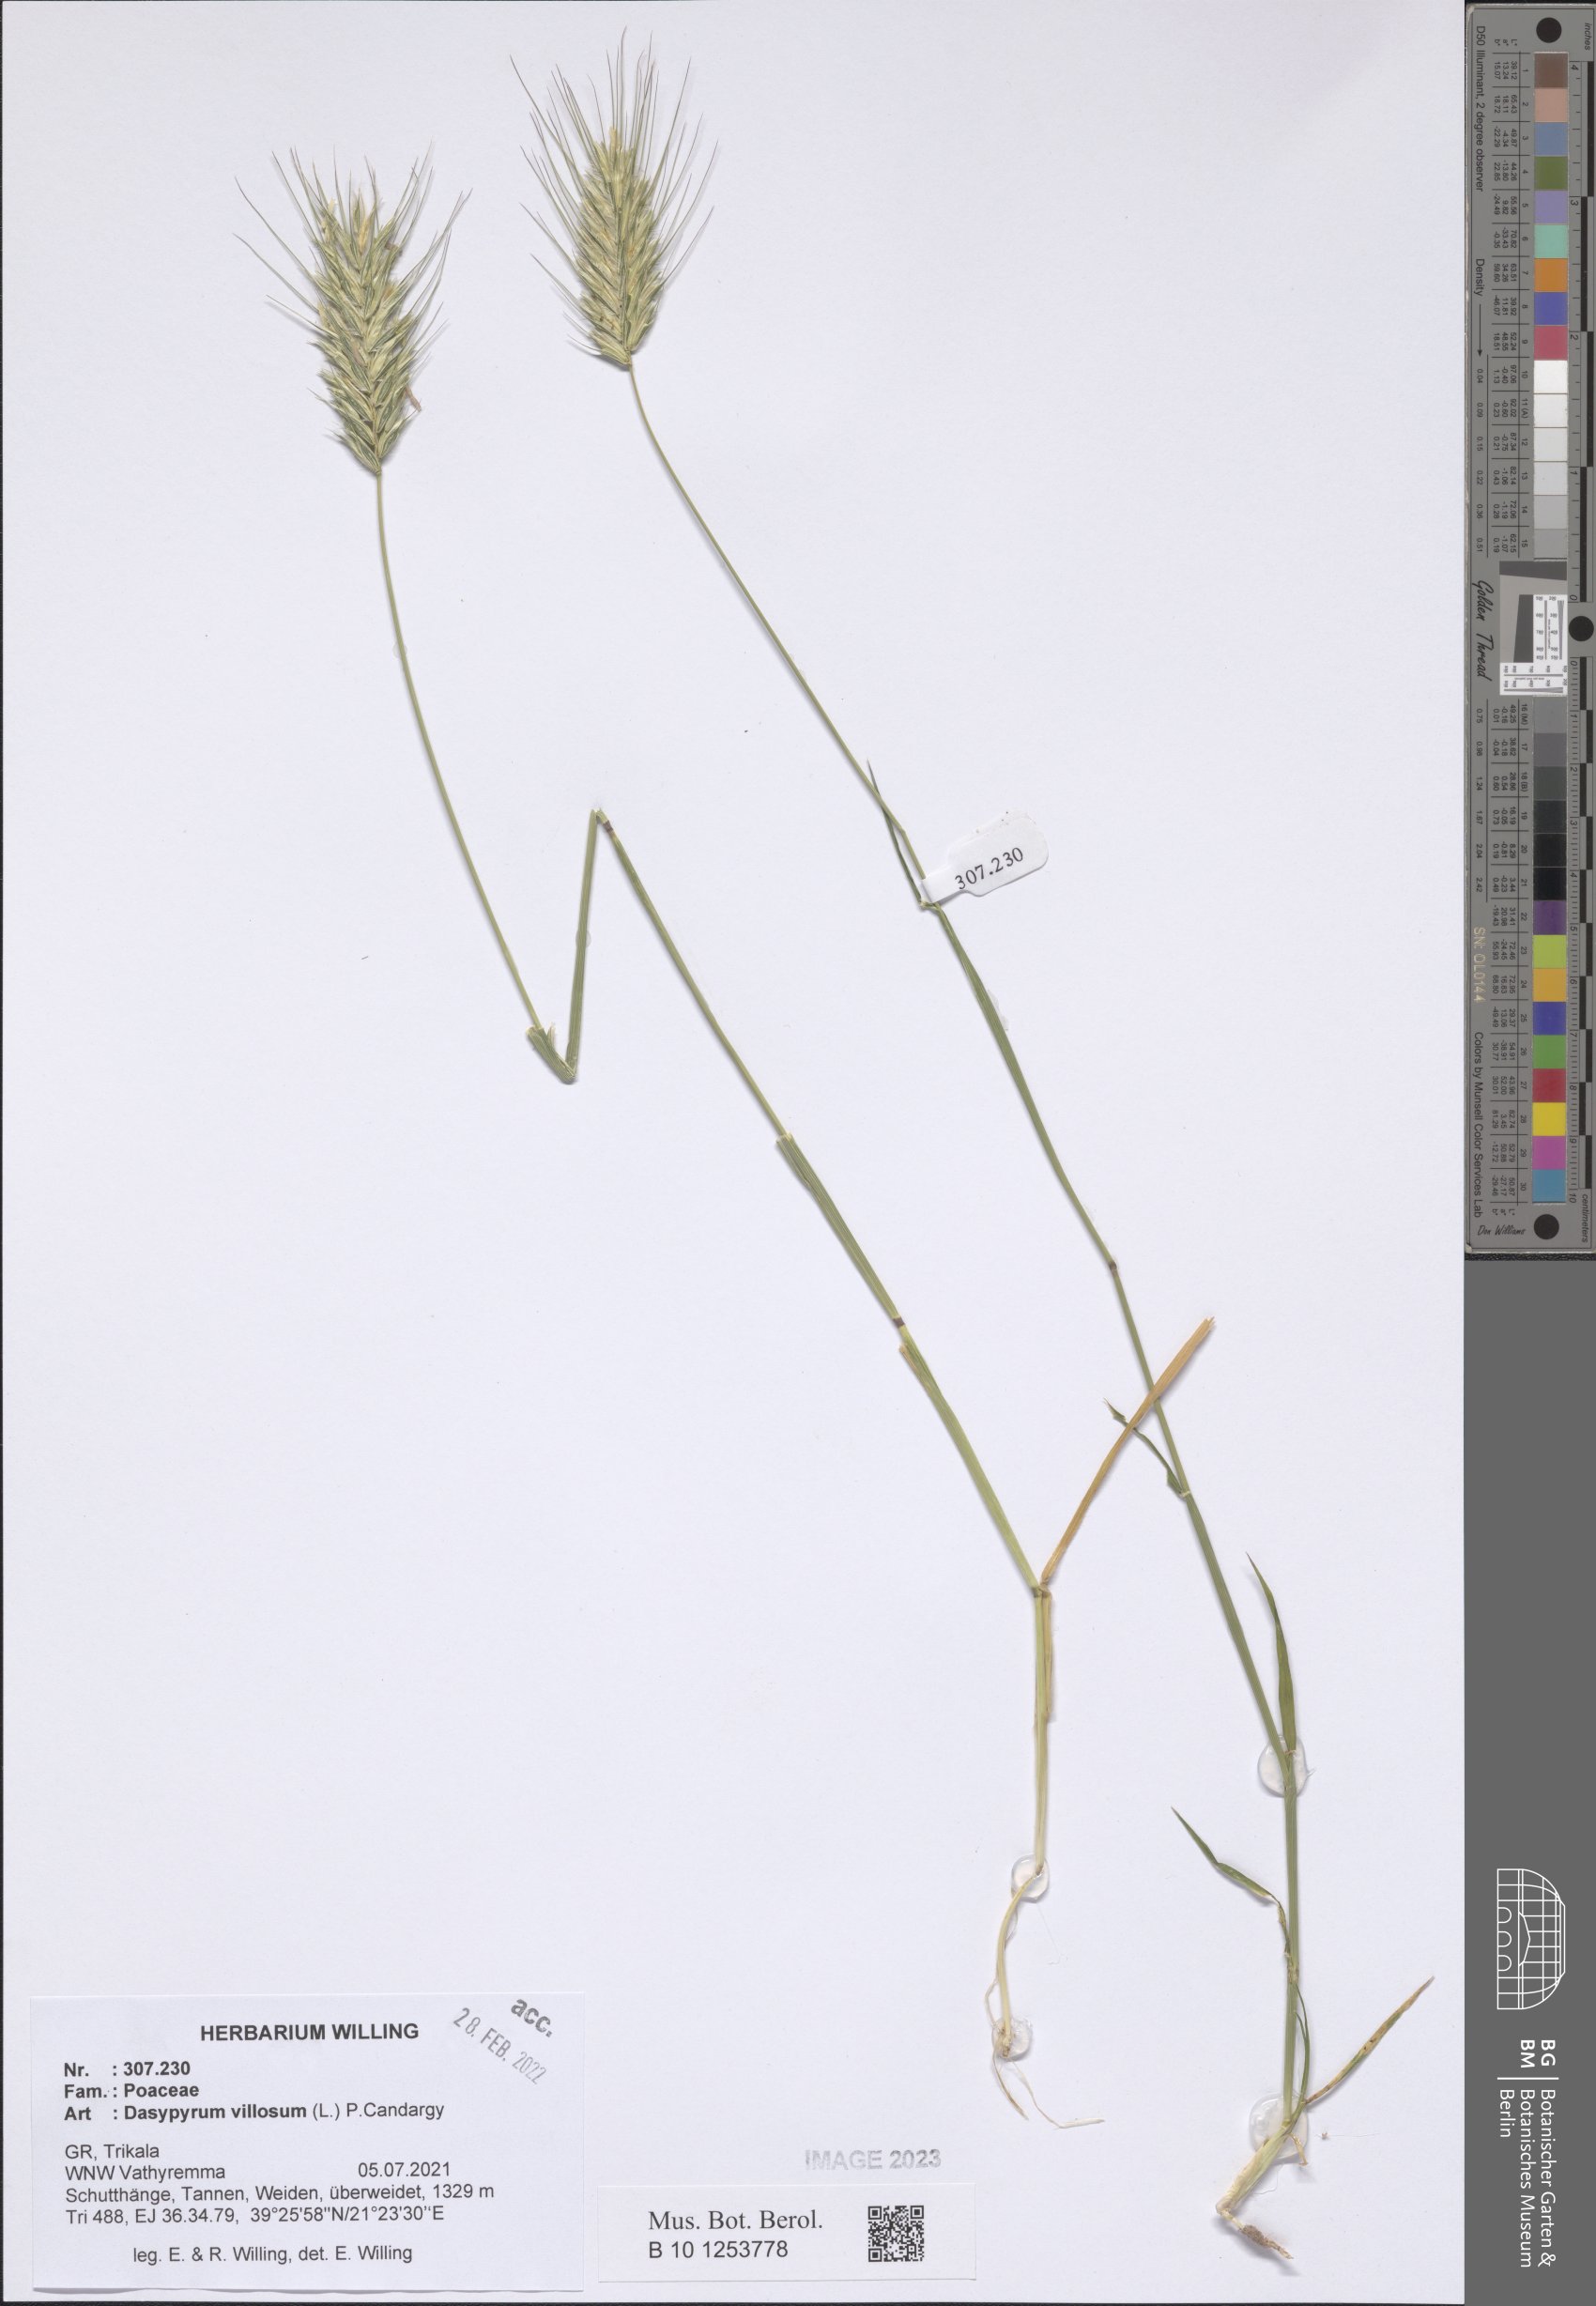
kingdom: Plantae
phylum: Tracheophyta
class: Liliopsida
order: Poales
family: Poaceae
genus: Dasypyrum
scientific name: Dasypyrum villosum
